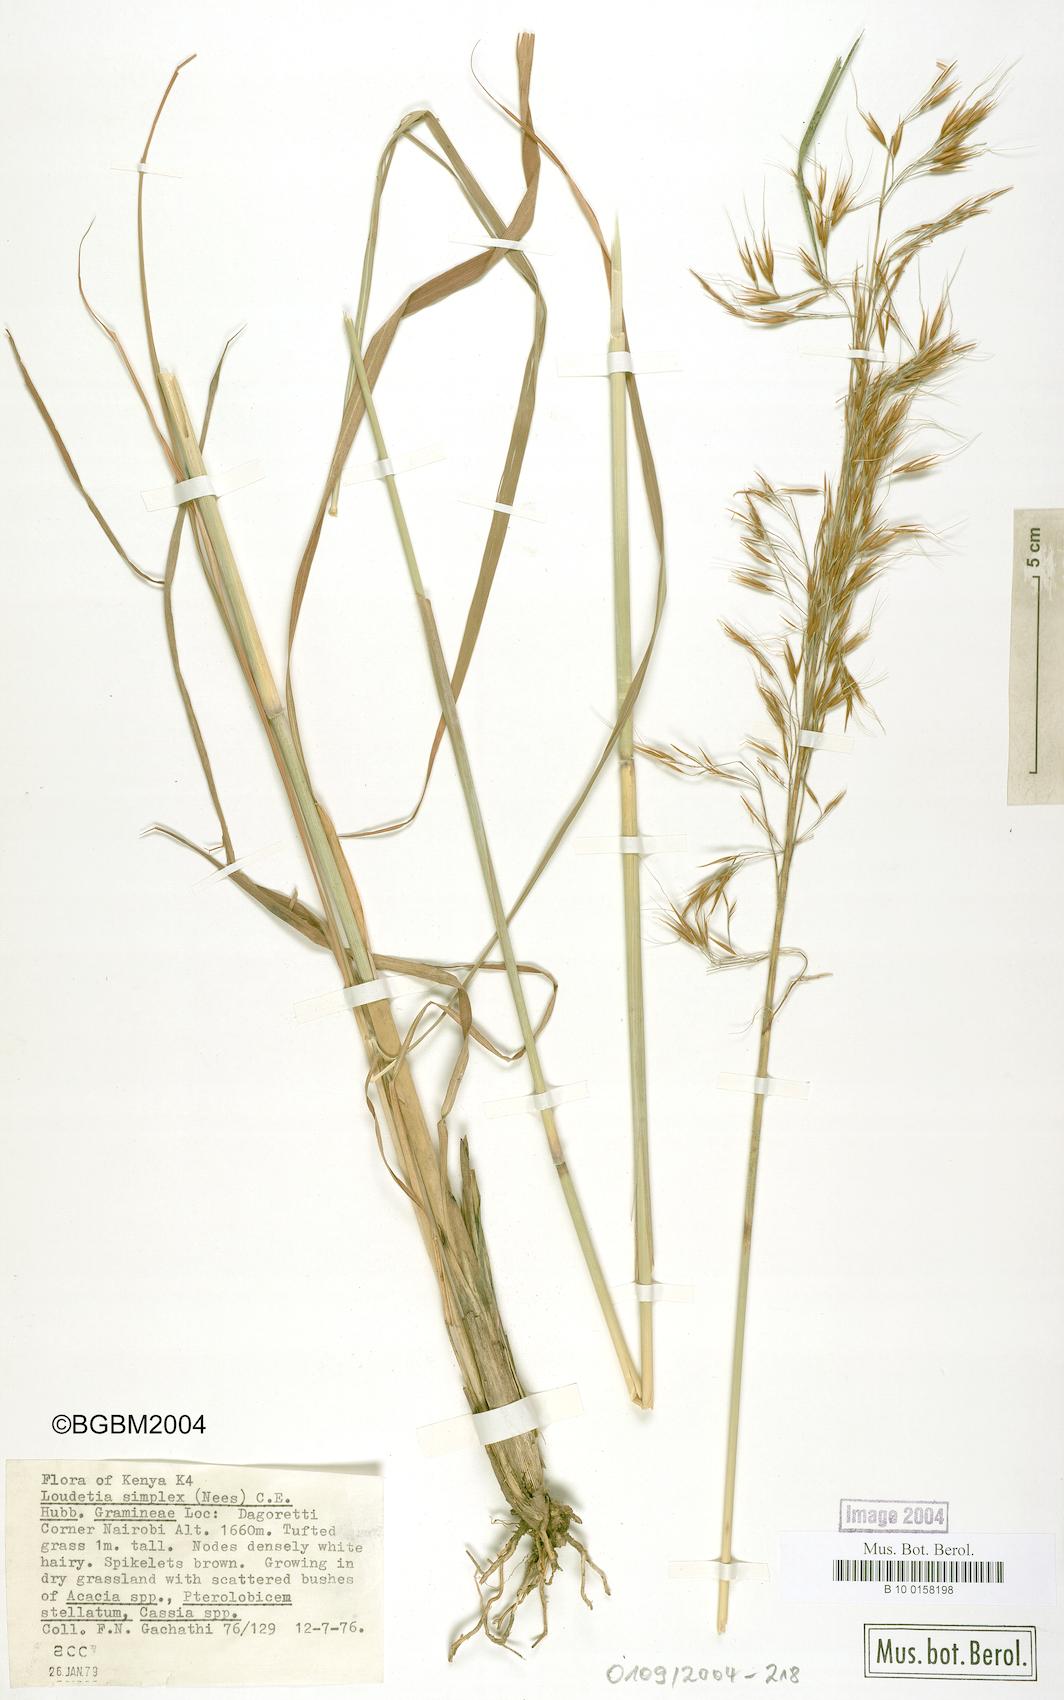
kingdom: Plantae
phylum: Tracheophyta
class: Liliopsida
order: Poales
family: Poaceae
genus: Loudetia
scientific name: Loudetia simplex
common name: Common russet grass
